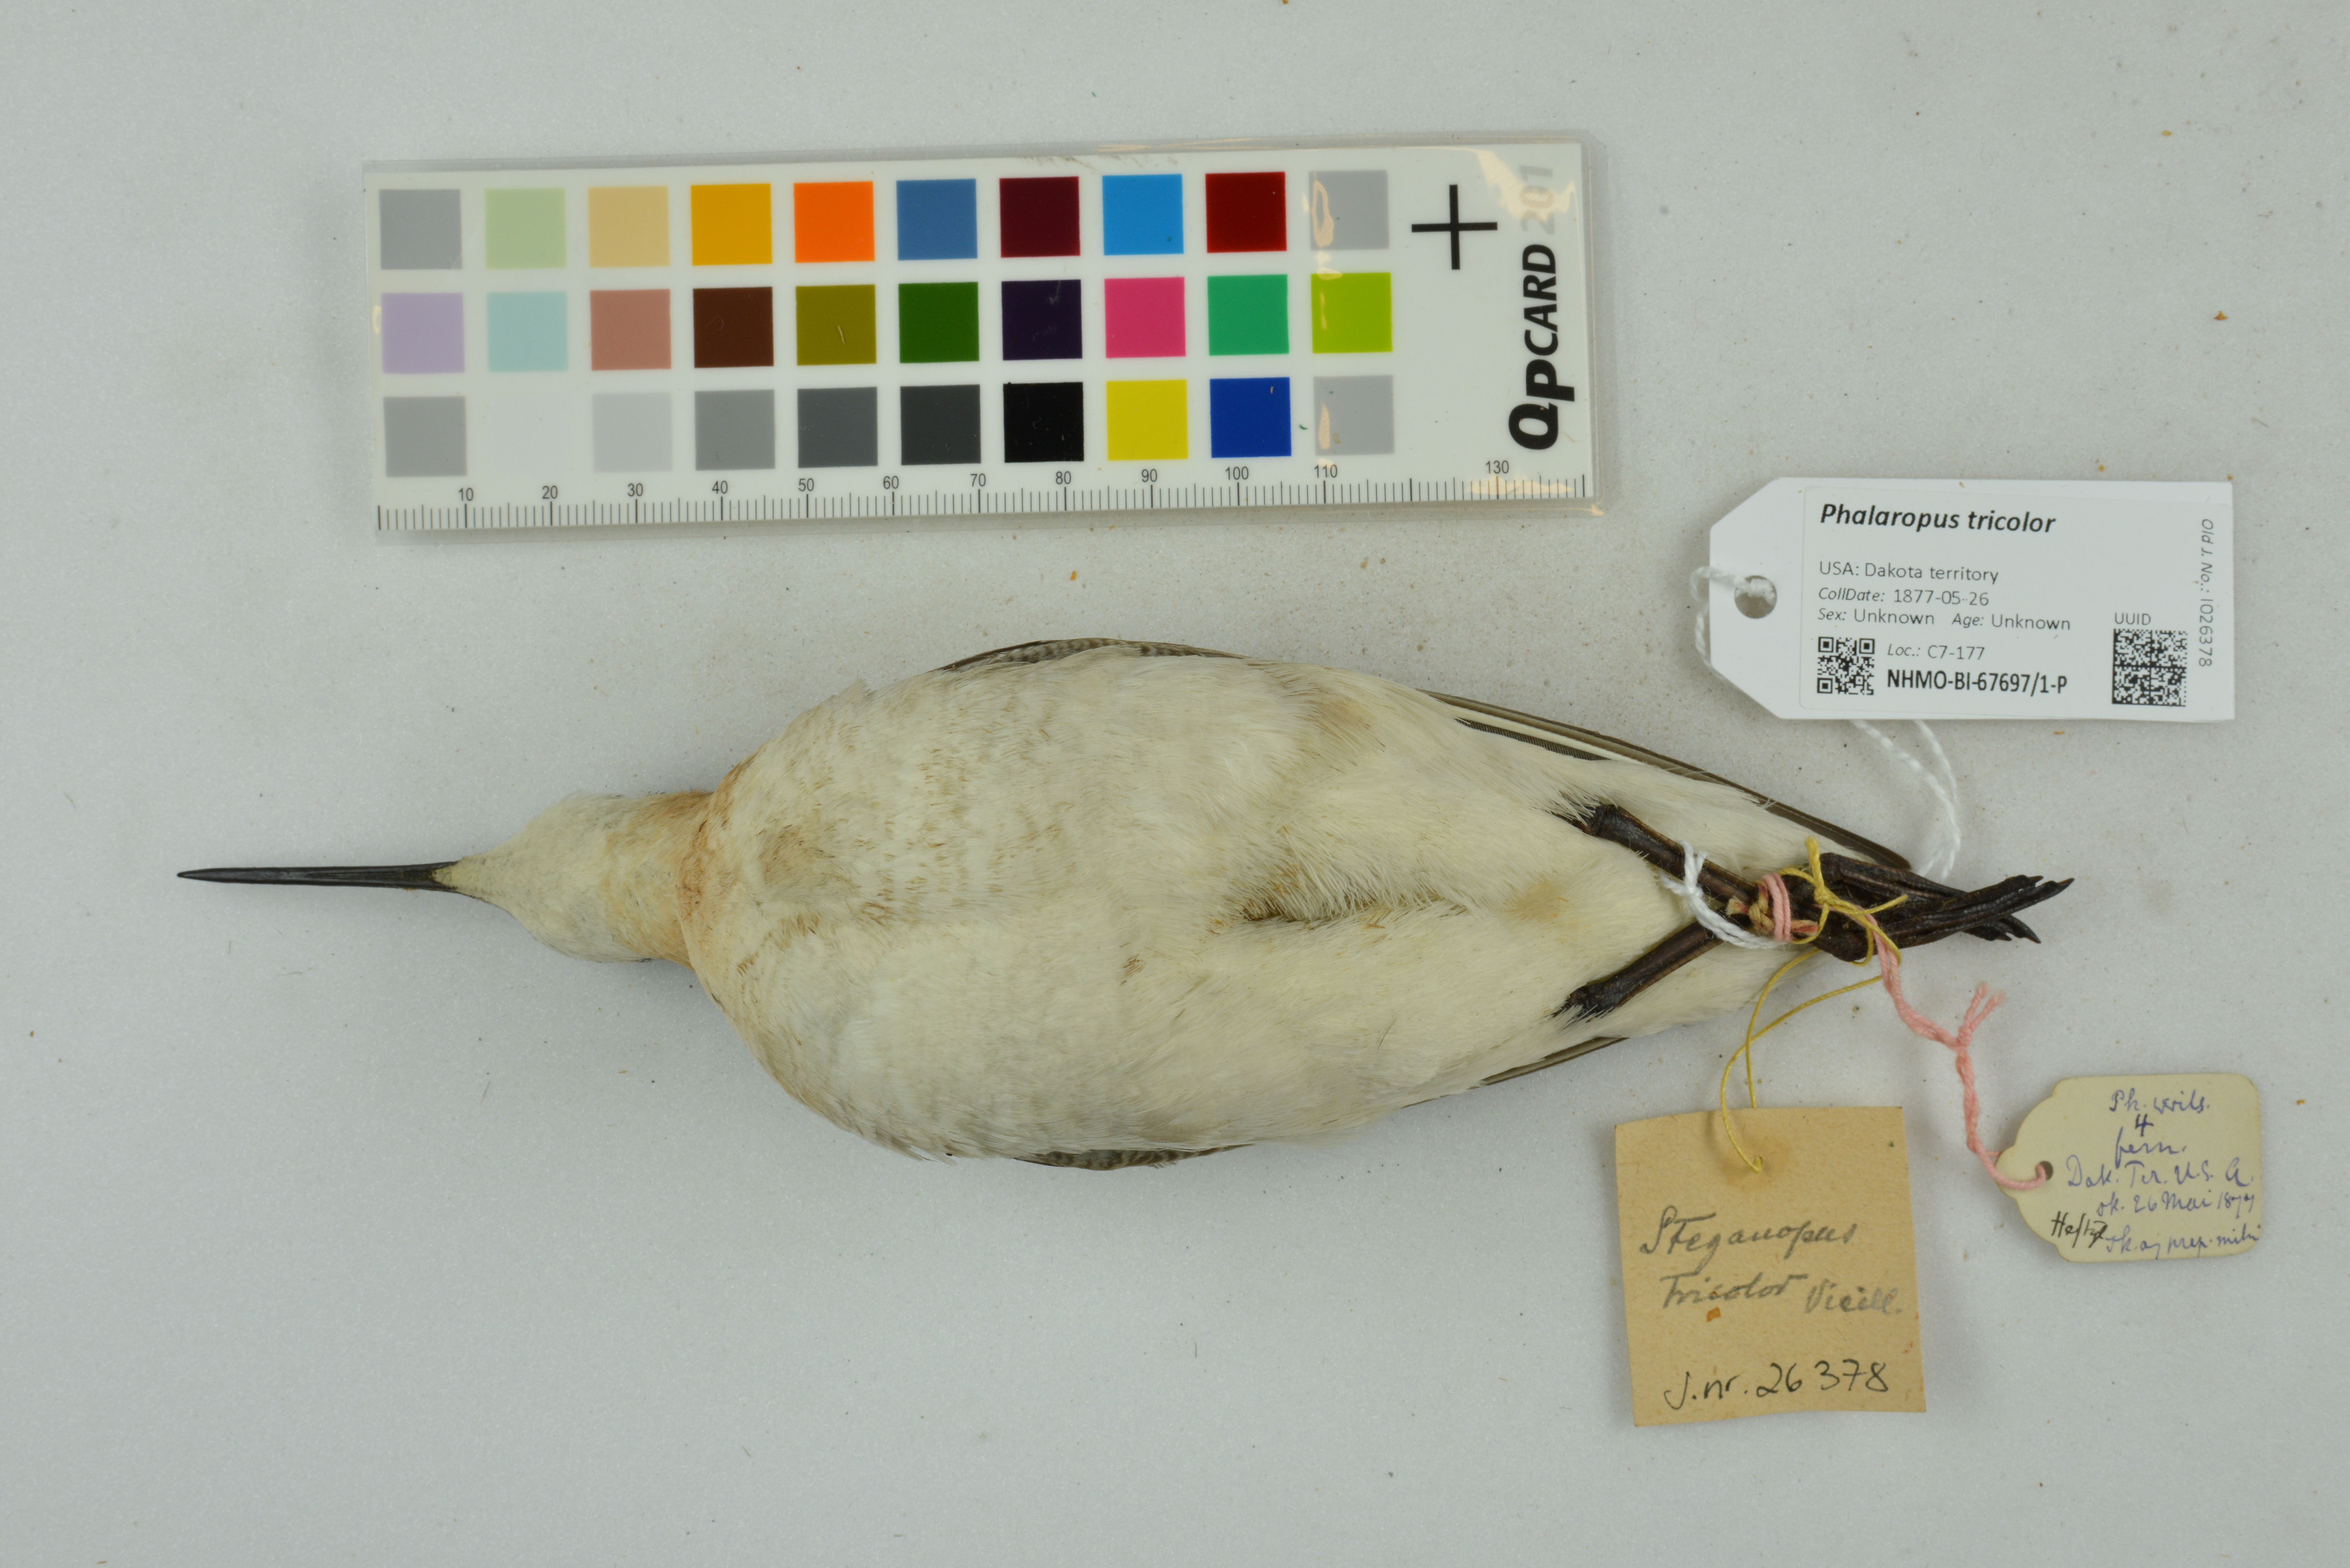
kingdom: Animalia
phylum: Chordata
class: Aves
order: Charadriiformes
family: Scolopacidae
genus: Phalaropus
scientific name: Phalaropus tricolor
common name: Wilson's phalarope
